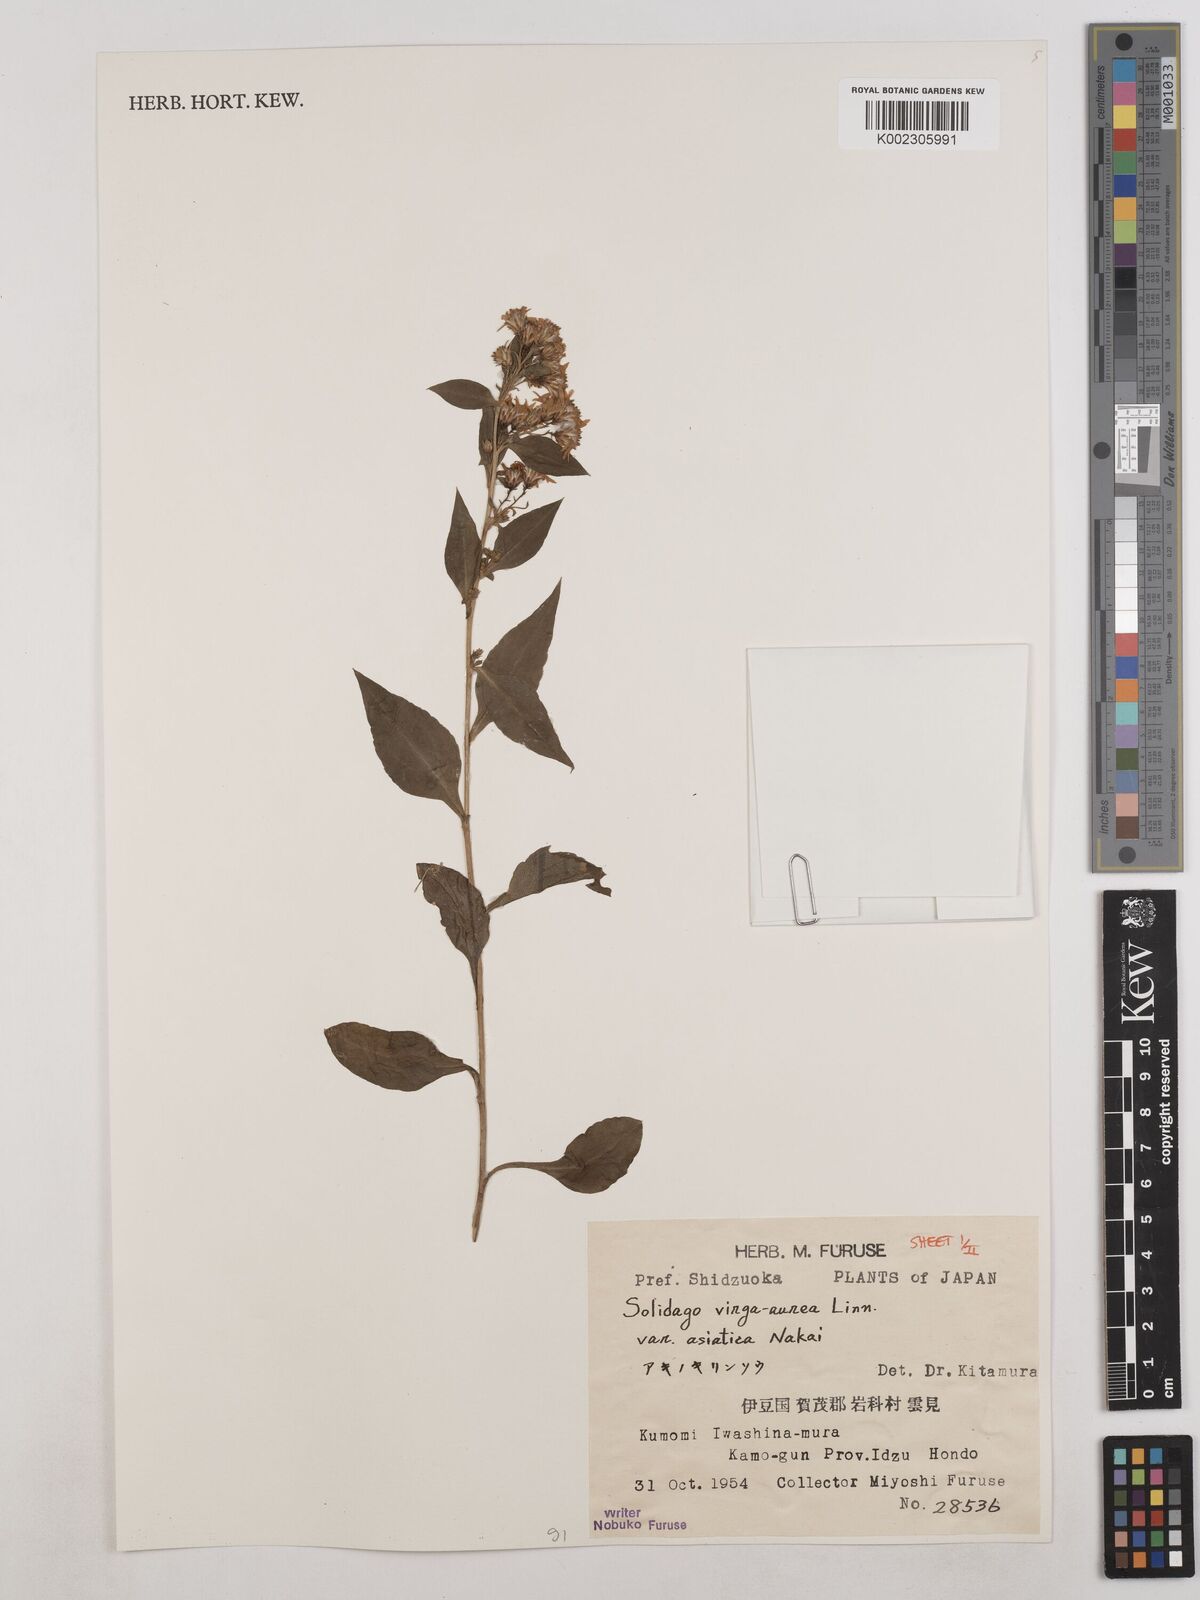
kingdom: Plantae
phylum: Tracheophyta
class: Magnoliopsida
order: Asterales
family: Asteraceae
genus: Solidago
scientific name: Solidago virgaurea
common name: Goldenrod
